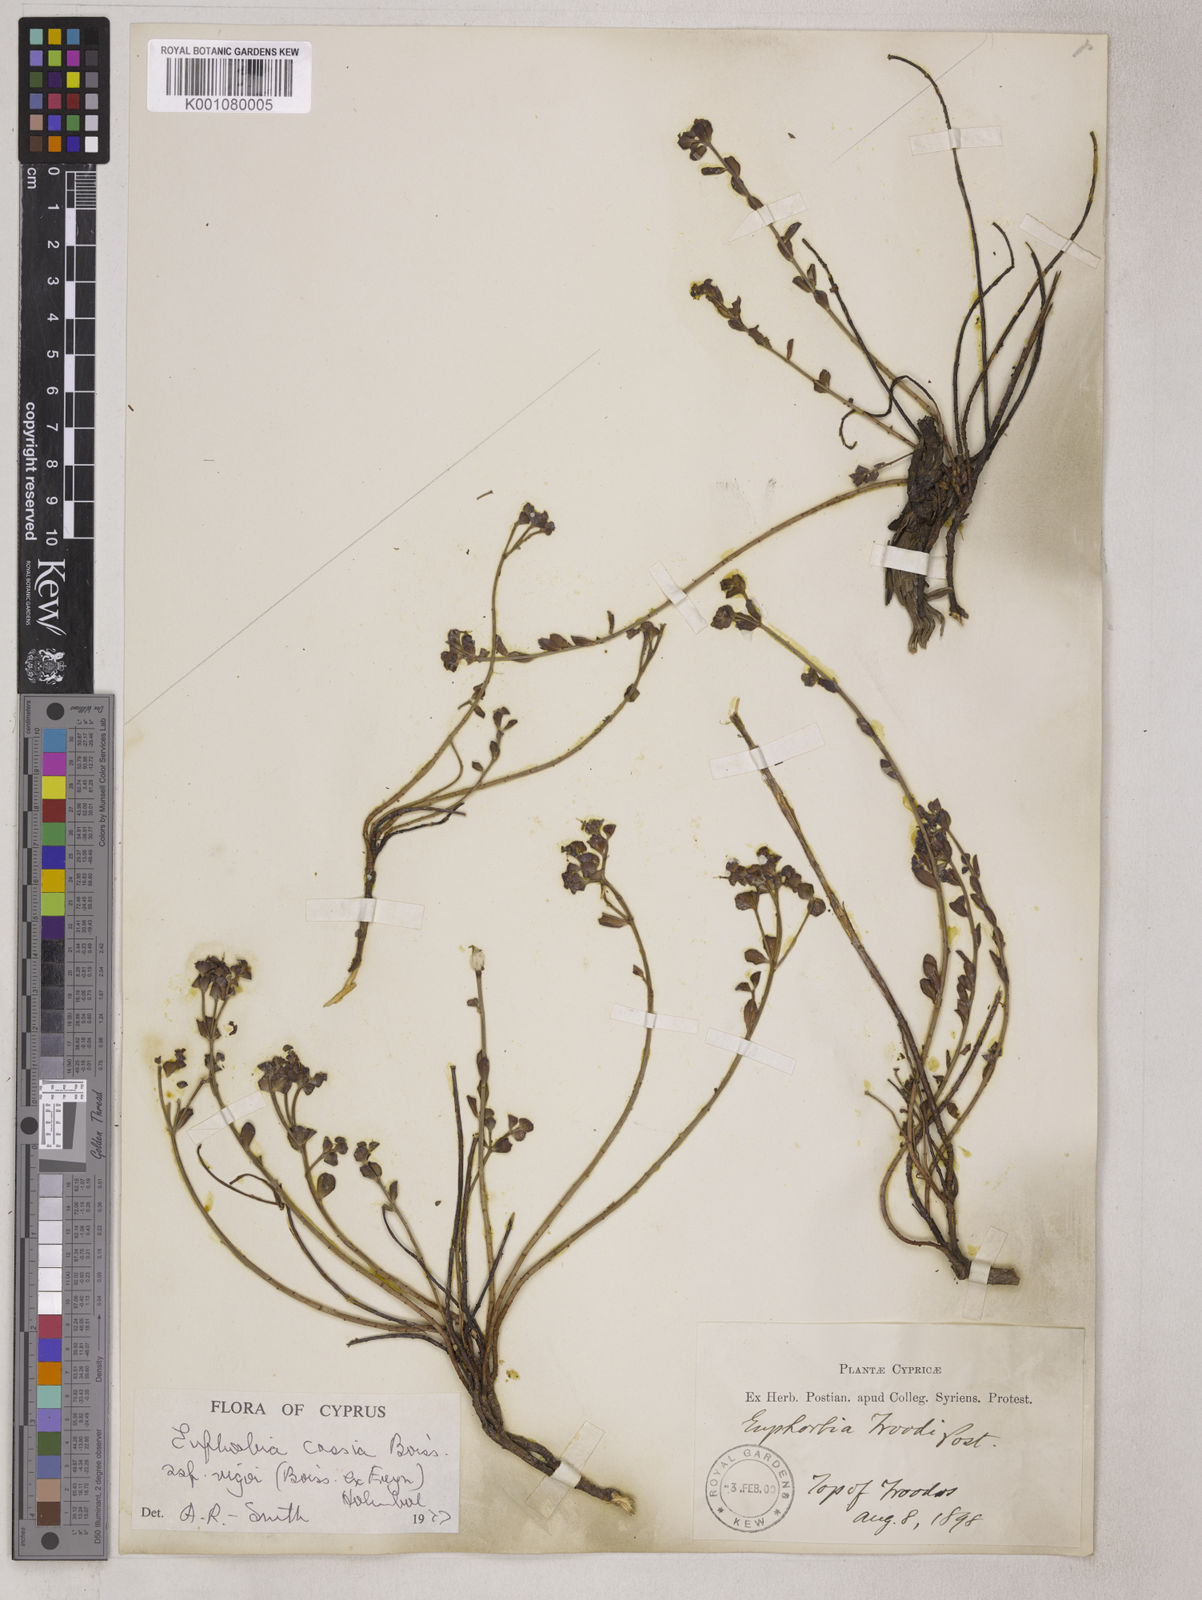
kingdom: Plantae
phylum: Tracheophyta
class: Magnoliopsida
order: Malpighiales
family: Euphorbiaceae
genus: Euphorbia
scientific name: Euphorbia cassia
